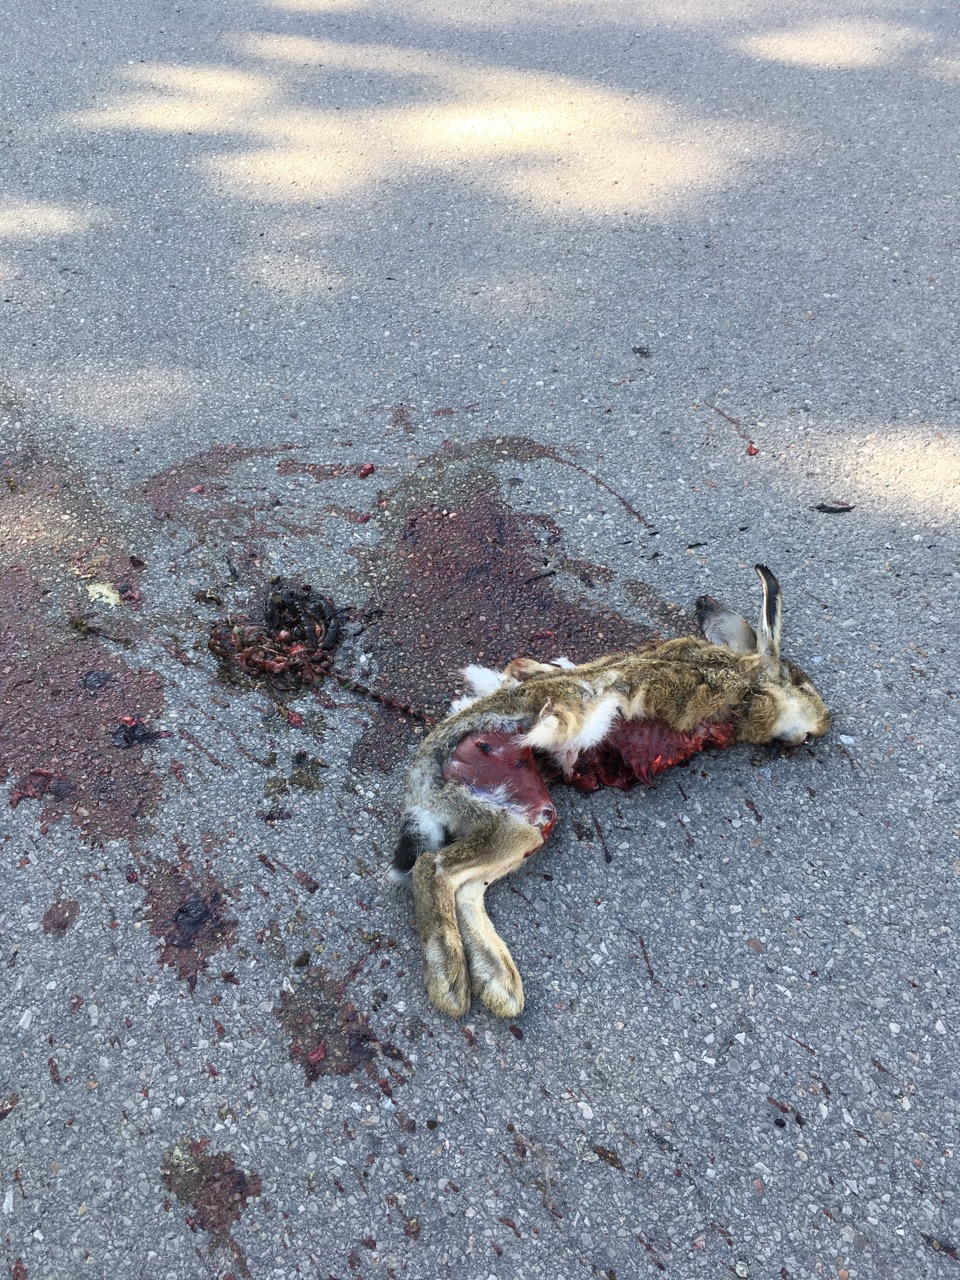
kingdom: Animalia
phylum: Chordata
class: Mammalia
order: Lagomorpha
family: Leporidae
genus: Lepus
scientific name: Lepus europaeus
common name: European hare
